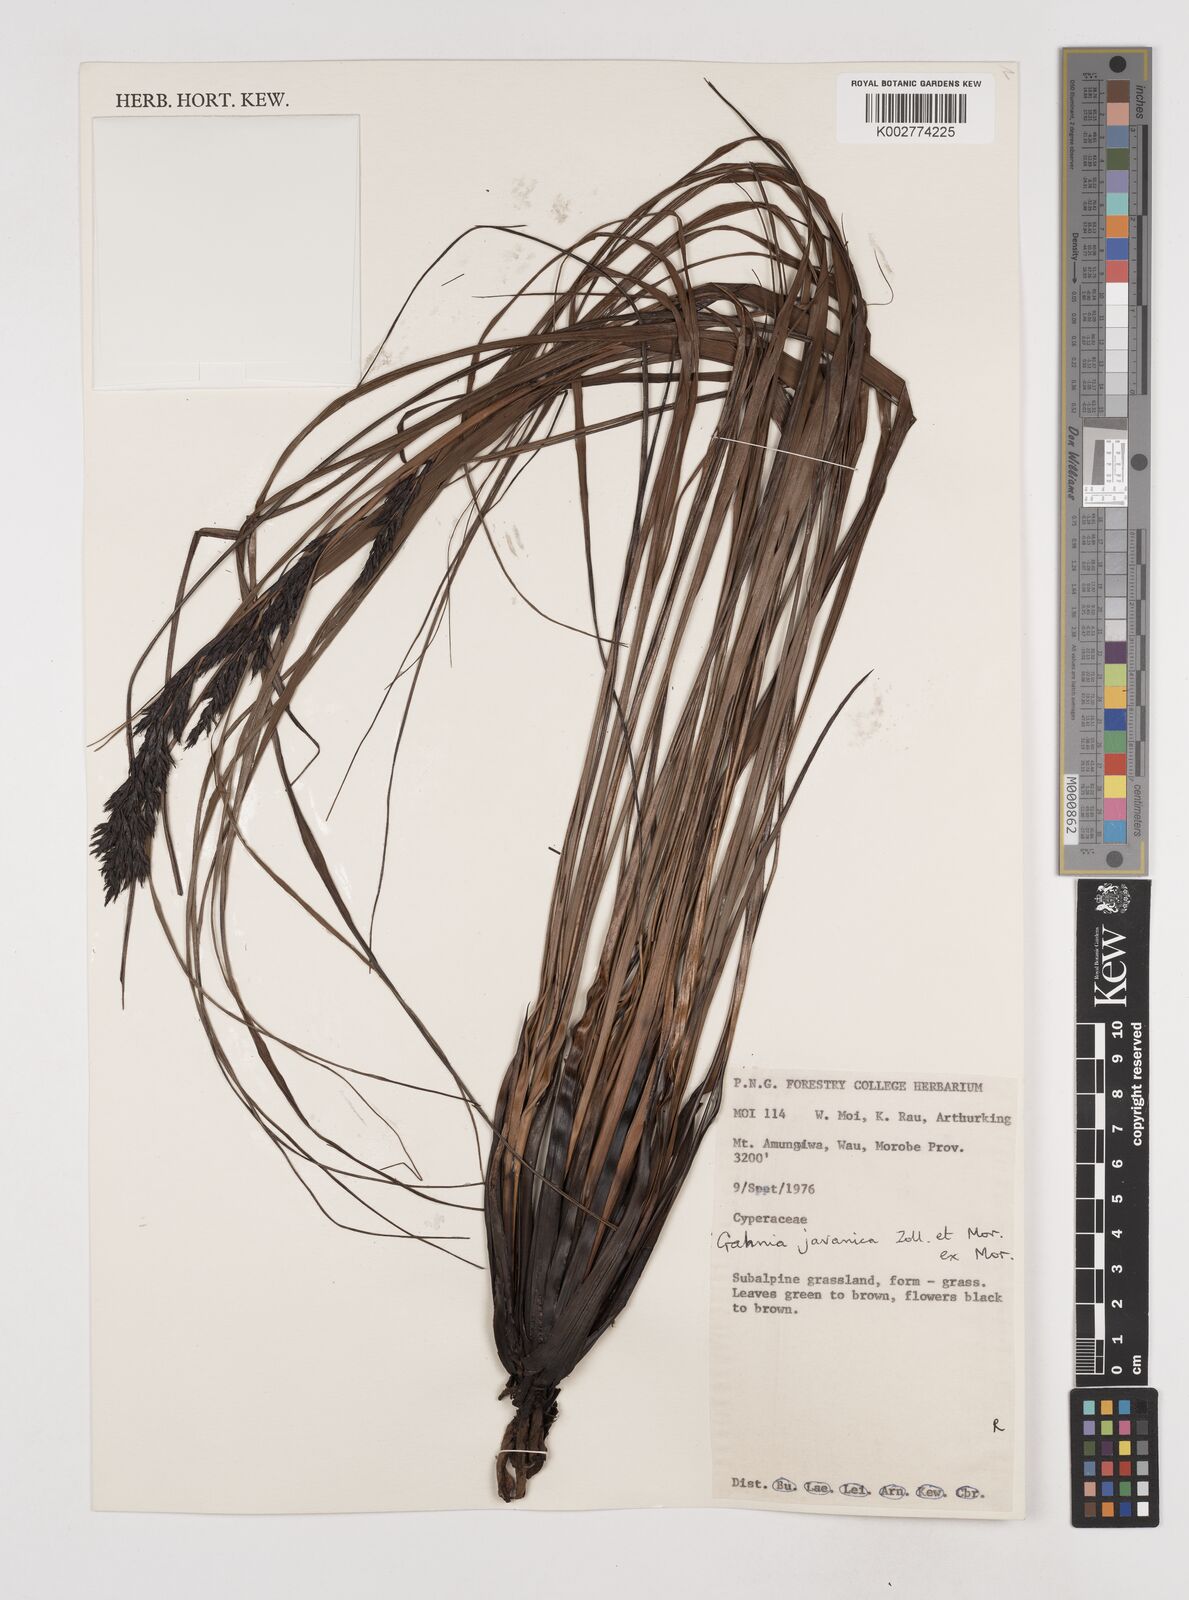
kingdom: Plantae
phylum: Tracheophyta
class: Liliopsida
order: Poales
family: Cyperaceae
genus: Gahnia
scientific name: Gahnia javanica
